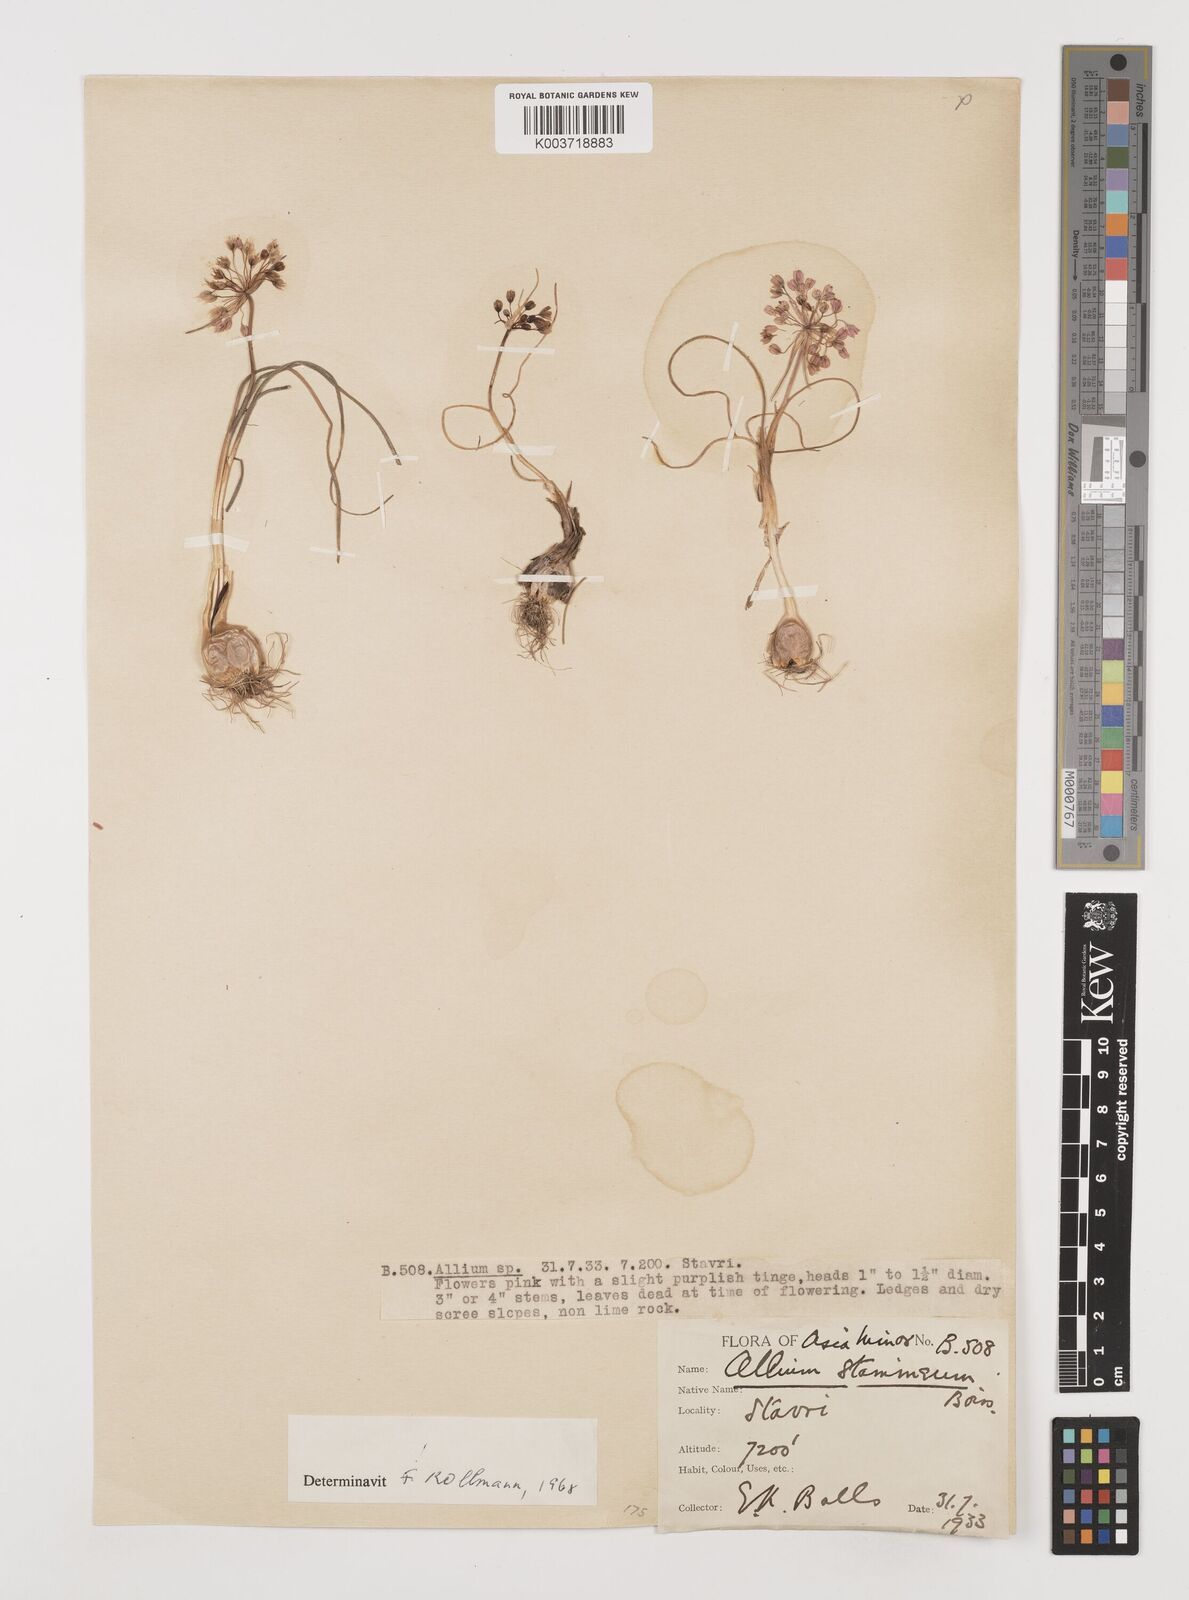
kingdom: Plantae
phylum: Tracheophyta
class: Liliopsida
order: Asparagales
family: Amaryllidaceae
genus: Allium
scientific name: Allium stamineum
